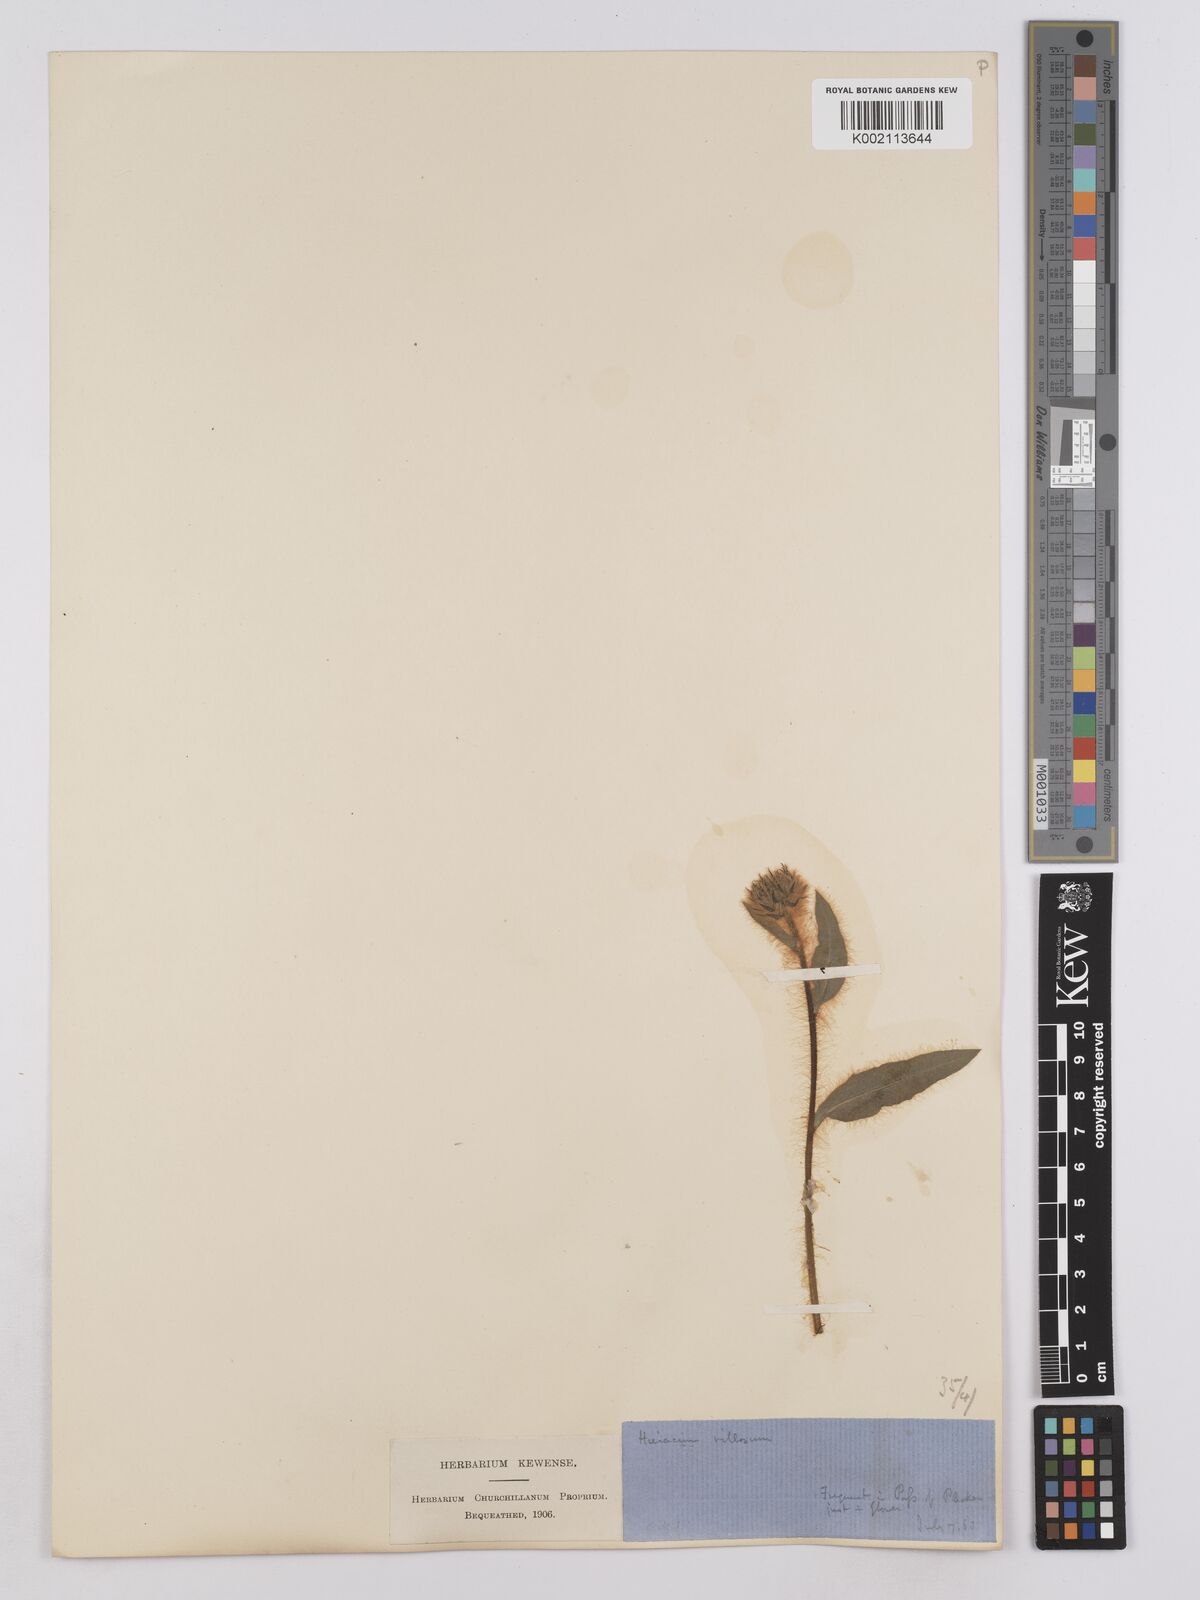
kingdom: Plantae
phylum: Tracheophyta
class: Magnoliopsida
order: Asterales
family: Asteraceae
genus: Hieracium
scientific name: Hieracium villosum
